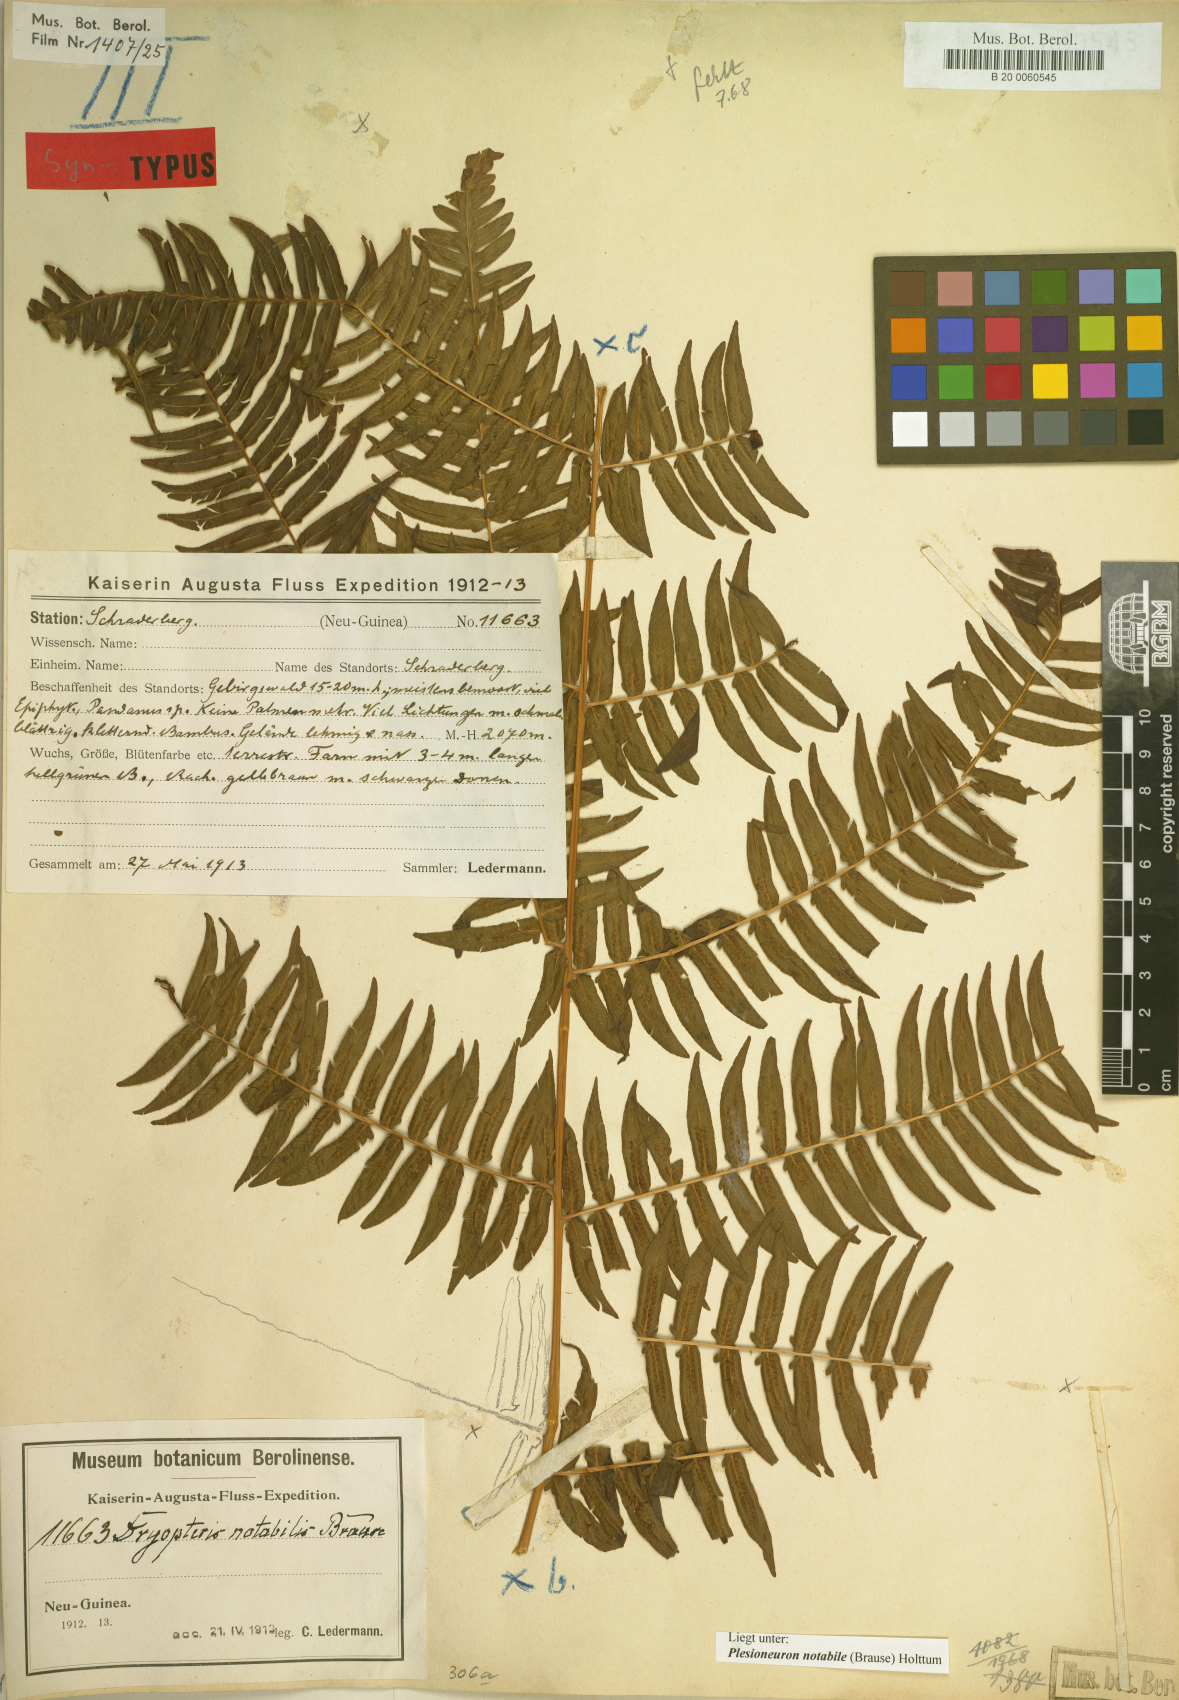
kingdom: Plantae
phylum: Tracheophyta
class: Polypodiopsida
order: Polypodiales
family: Thelypteridaceae
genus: Plesioneuron
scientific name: Plesioneuron notabile
